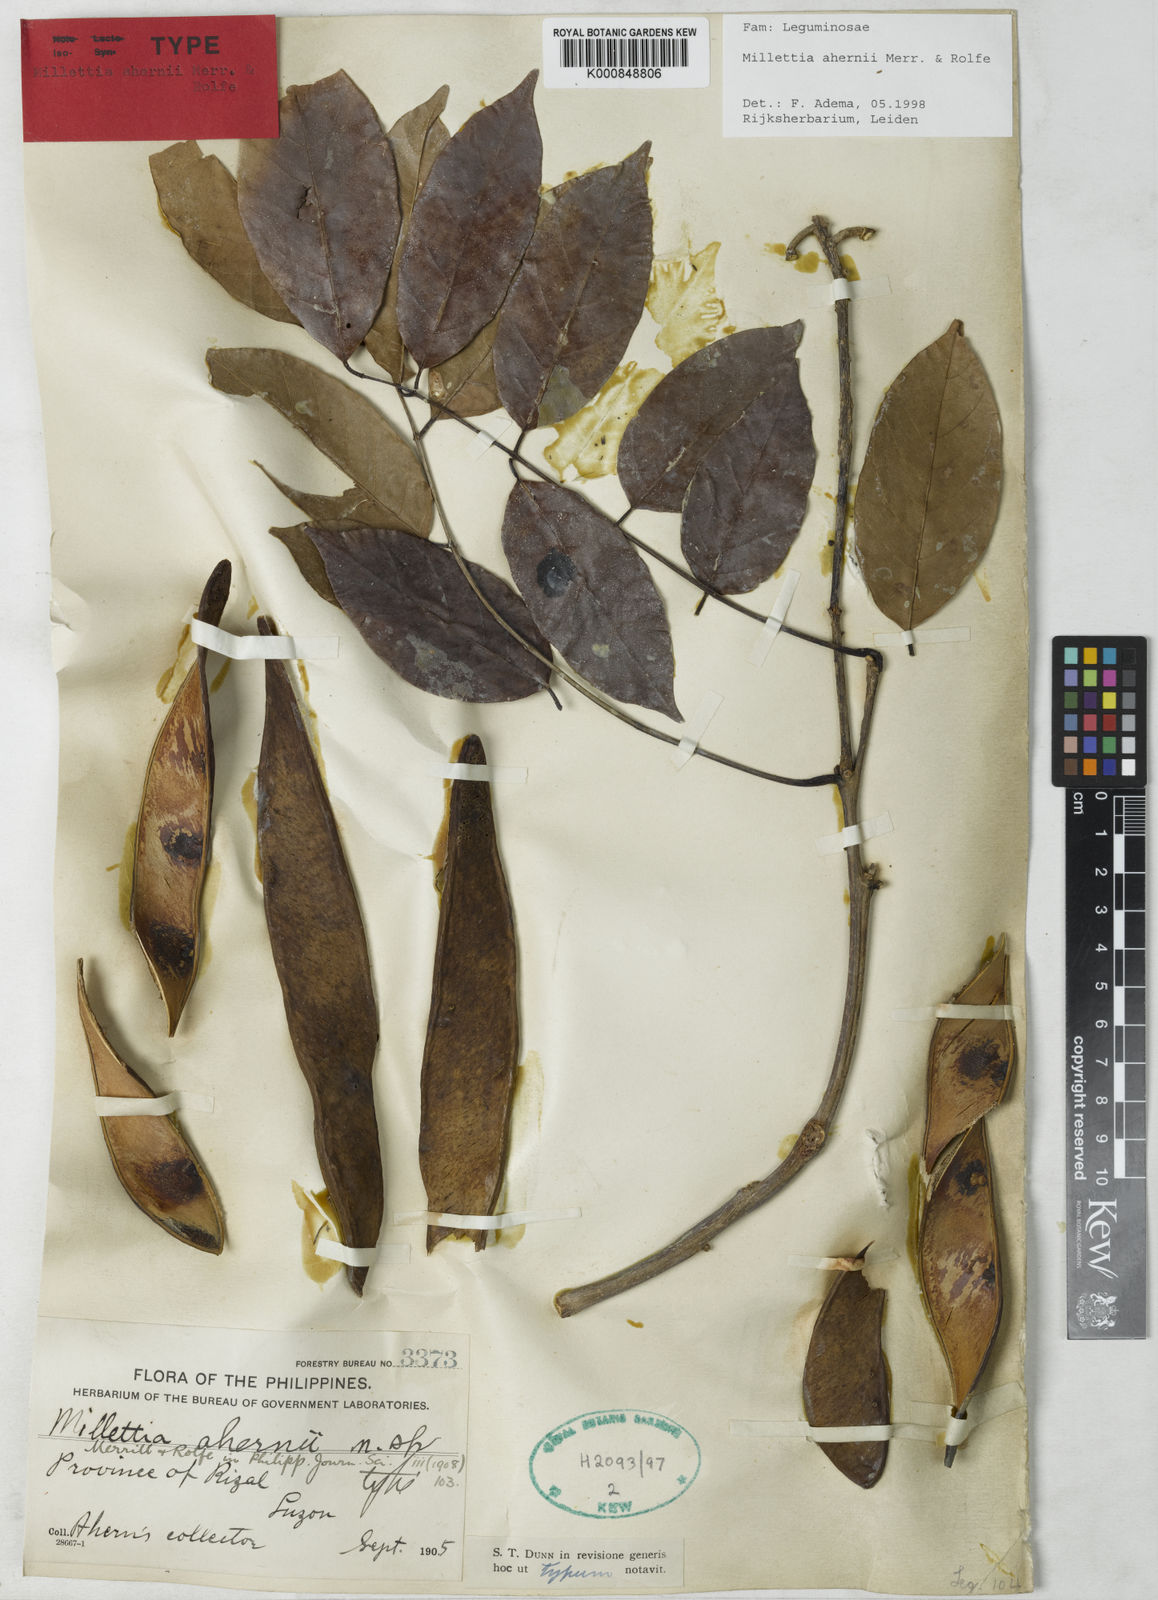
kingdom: Plantae
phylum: Tracheophyta
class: Magnoliopsida
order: Fabales
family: Fabaceae
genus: Millettia
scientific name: Millettia ahernii
